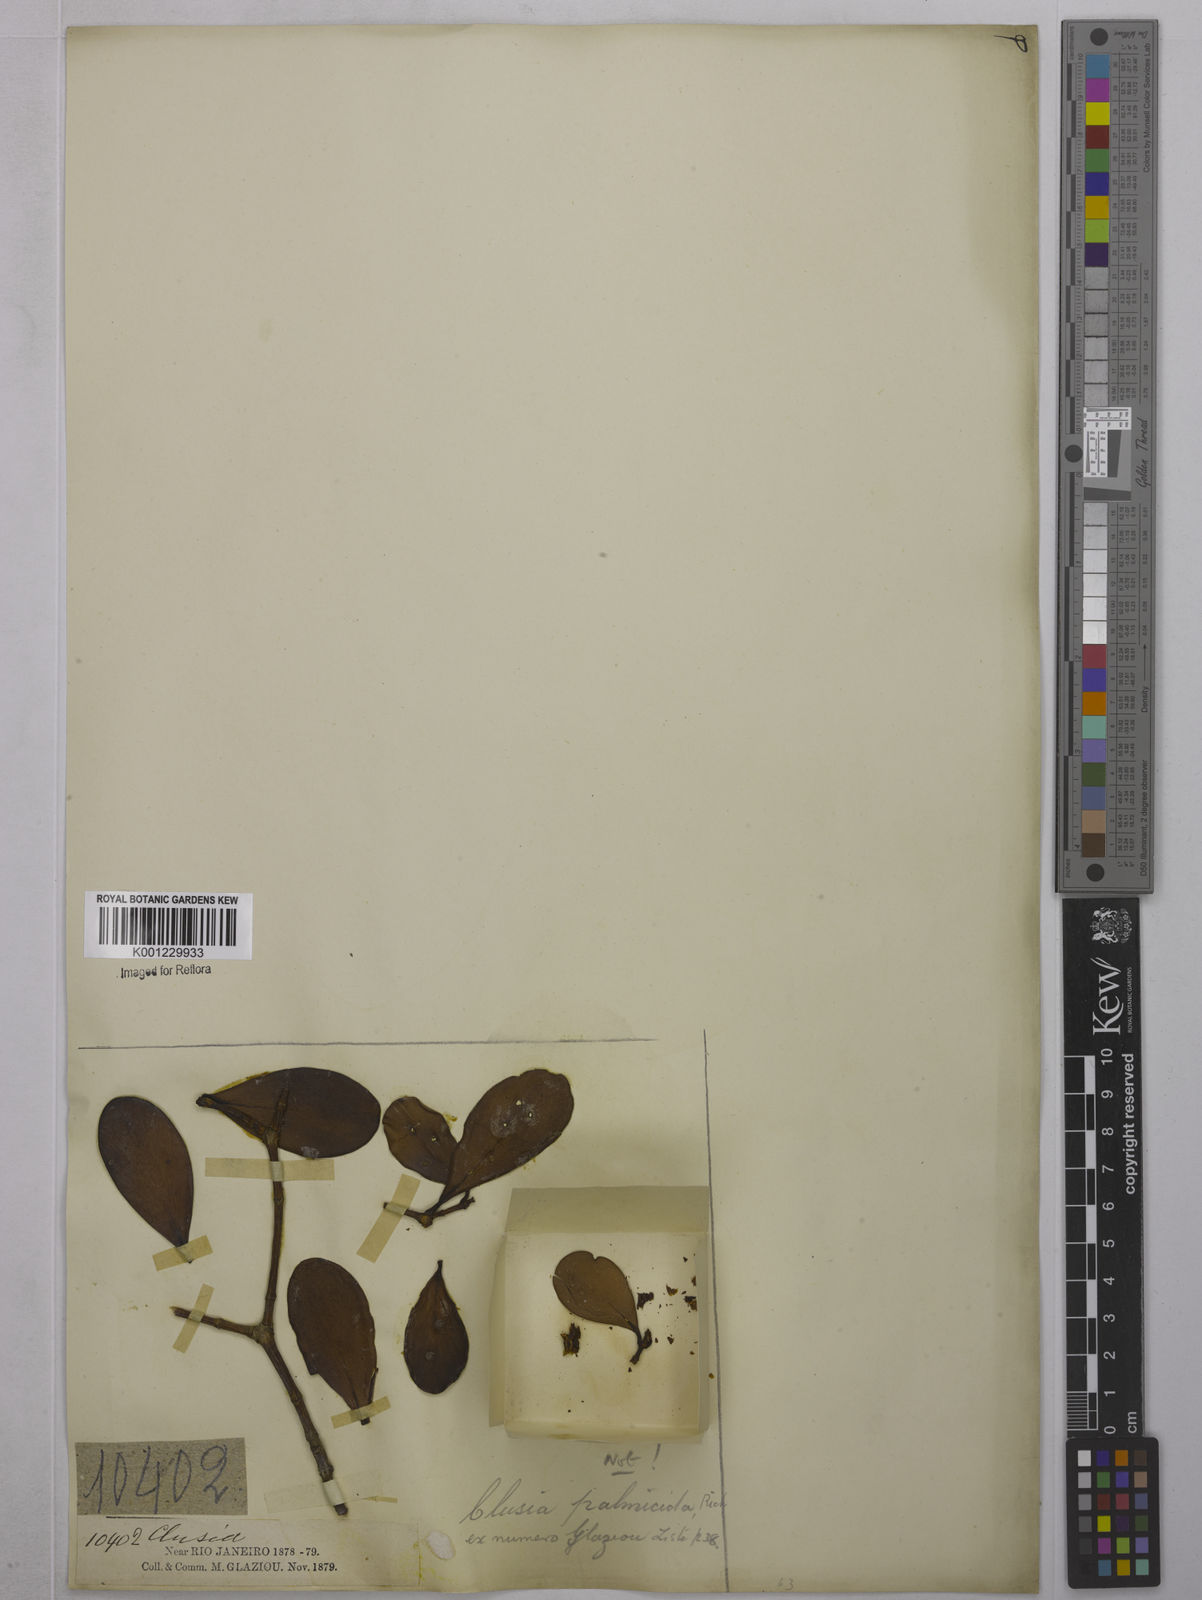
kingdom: Plantae
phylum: Tracheophyta
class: Magnoliopsida
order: Malpighiales
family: Clusiaceae
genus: Clusia
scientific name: Clusia
